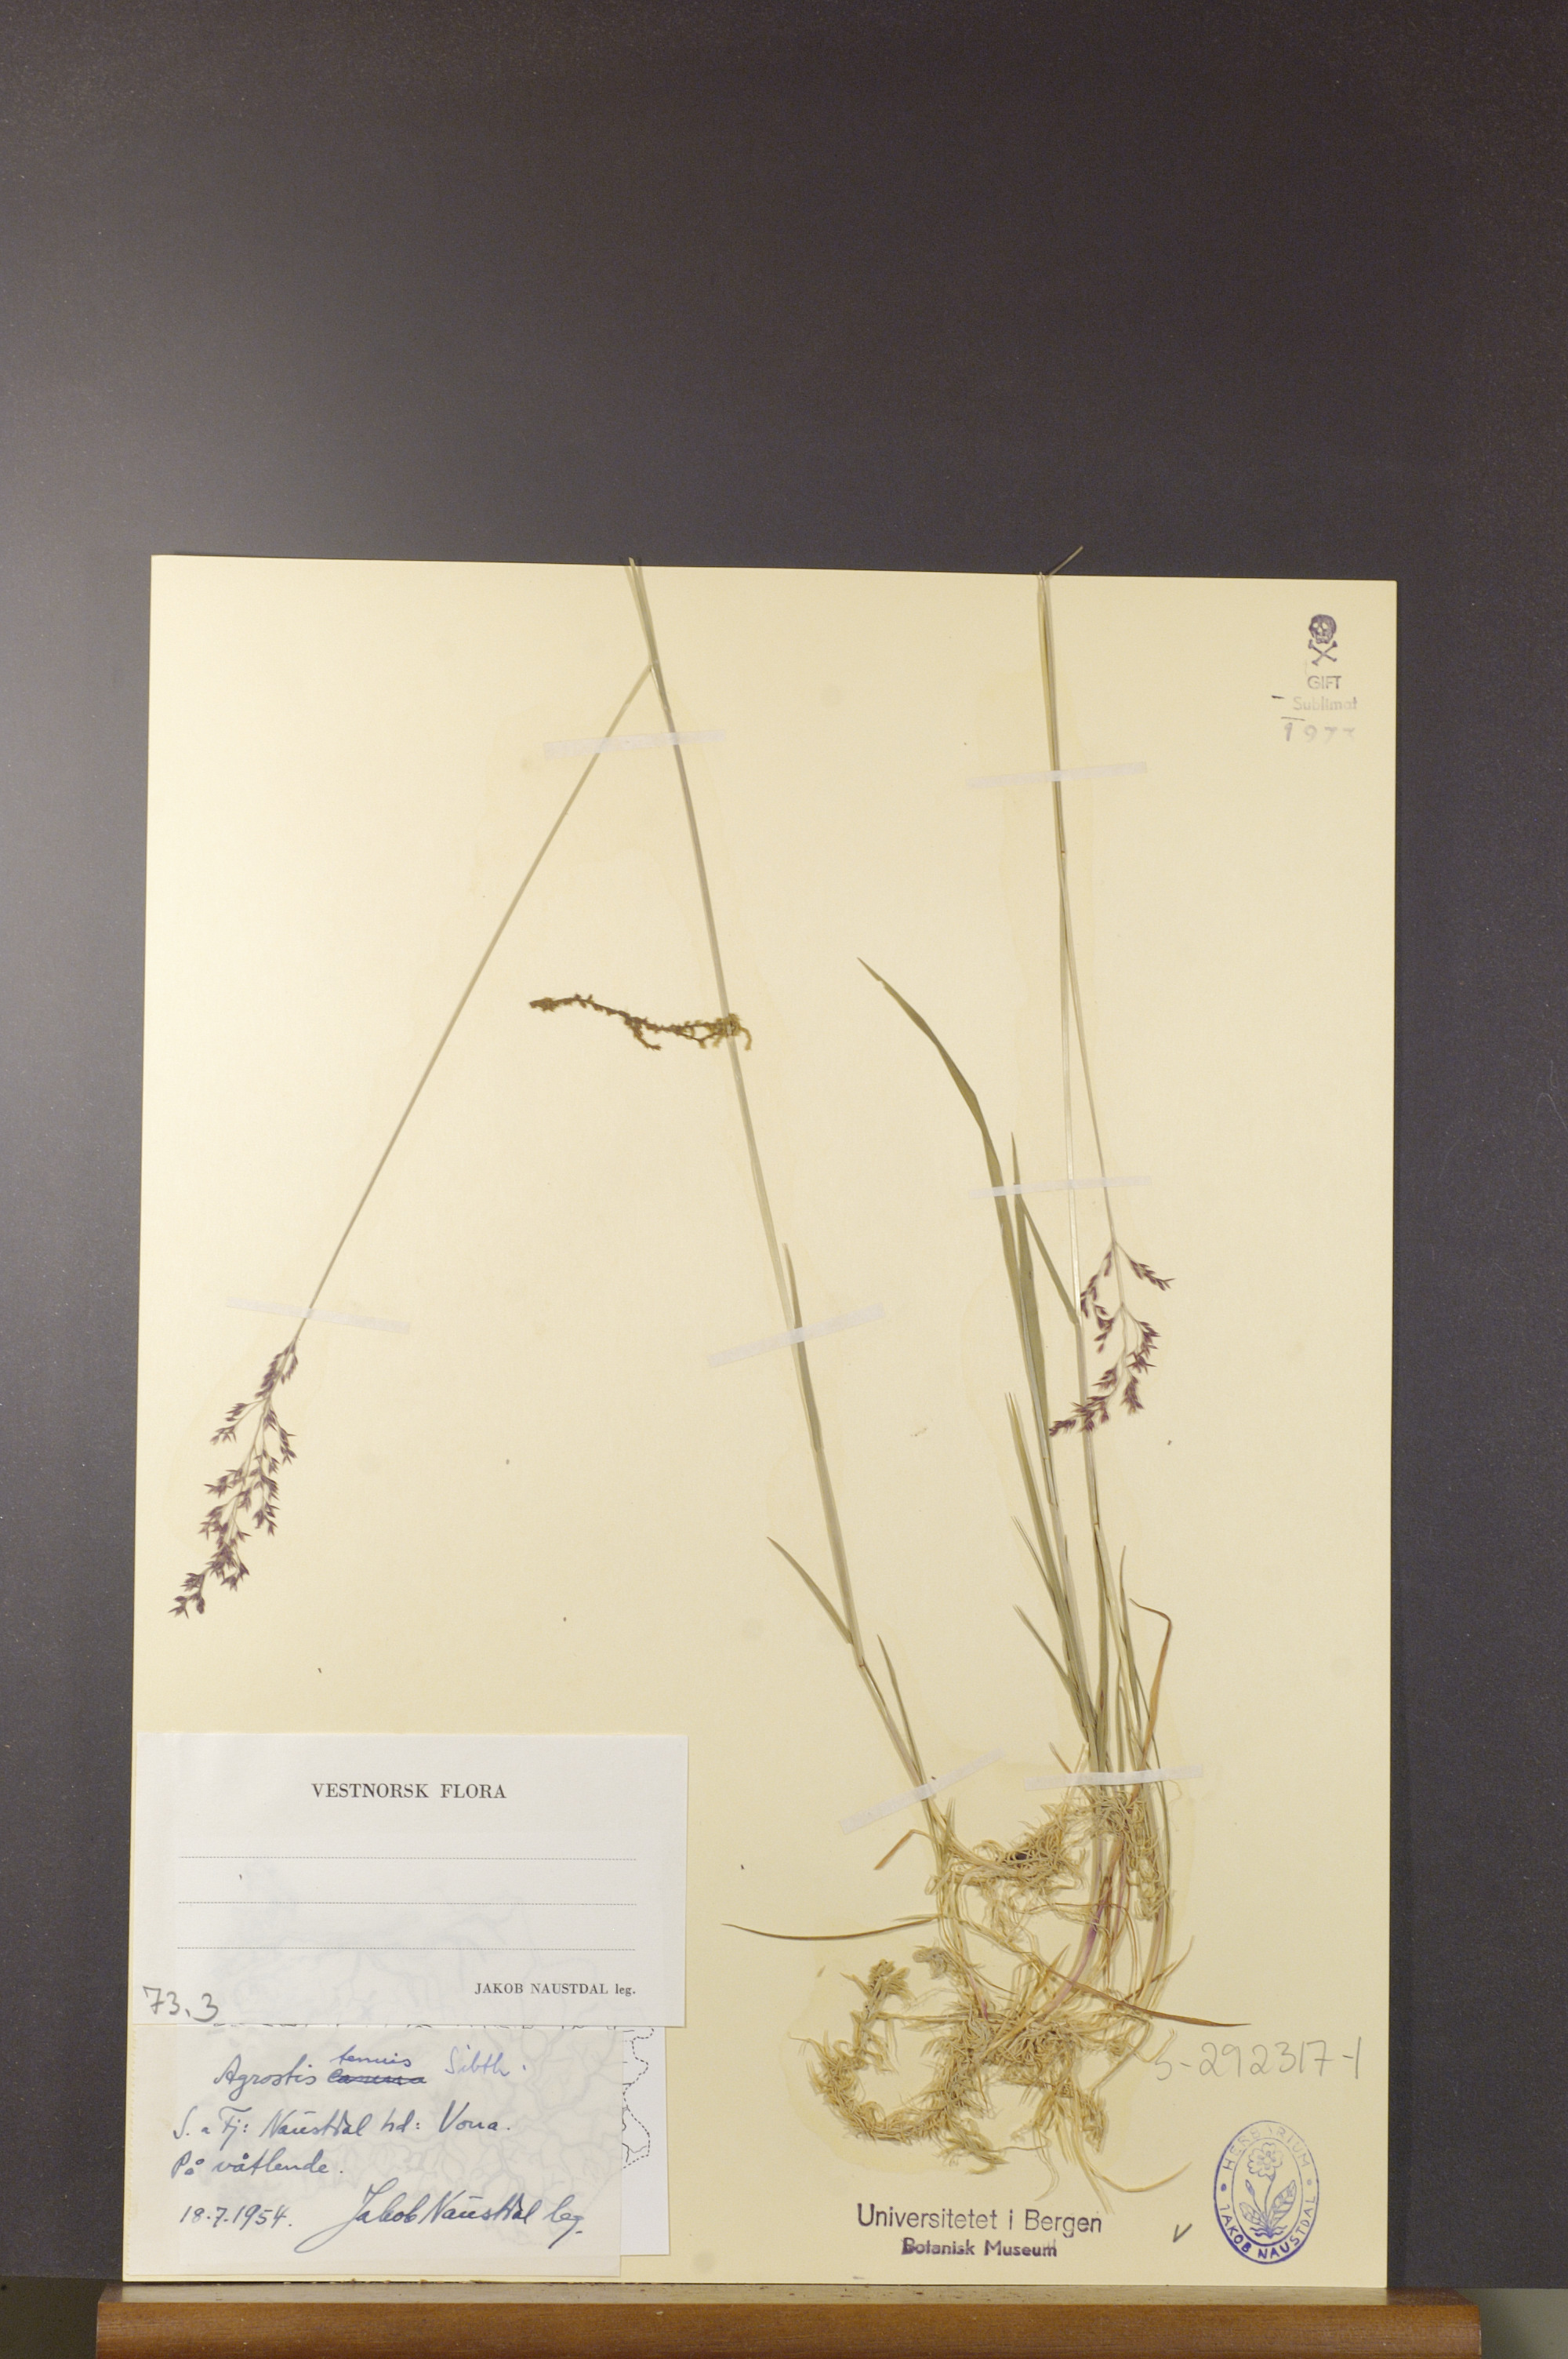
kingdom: Plantae
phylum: Tracheophyta
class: Liliopsida
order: Poales
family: Poaceae
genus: Agrostis
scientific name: Agrostis capillaris
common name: Colonial bentgrass
